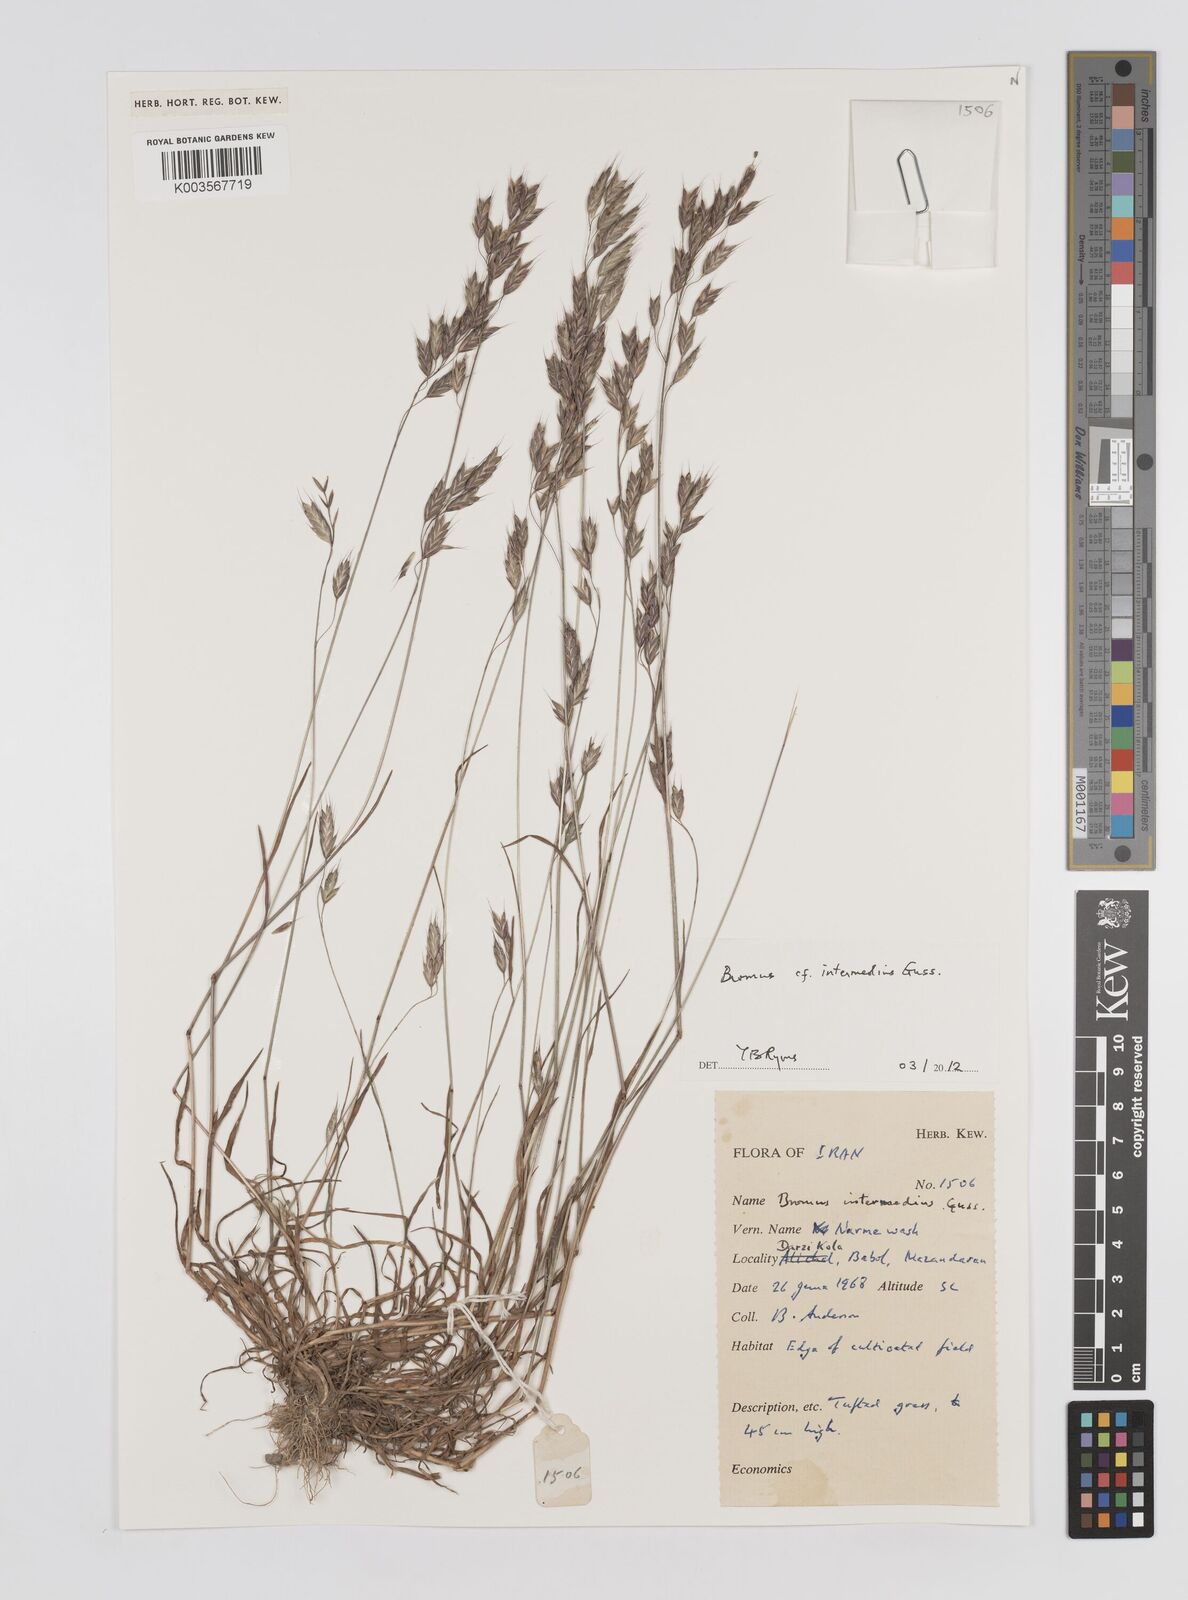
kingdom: Plantae
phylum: Tracheophyta
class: Liliopsida
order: Poales
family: Poaceae
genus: Bromus
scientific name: Bromus
